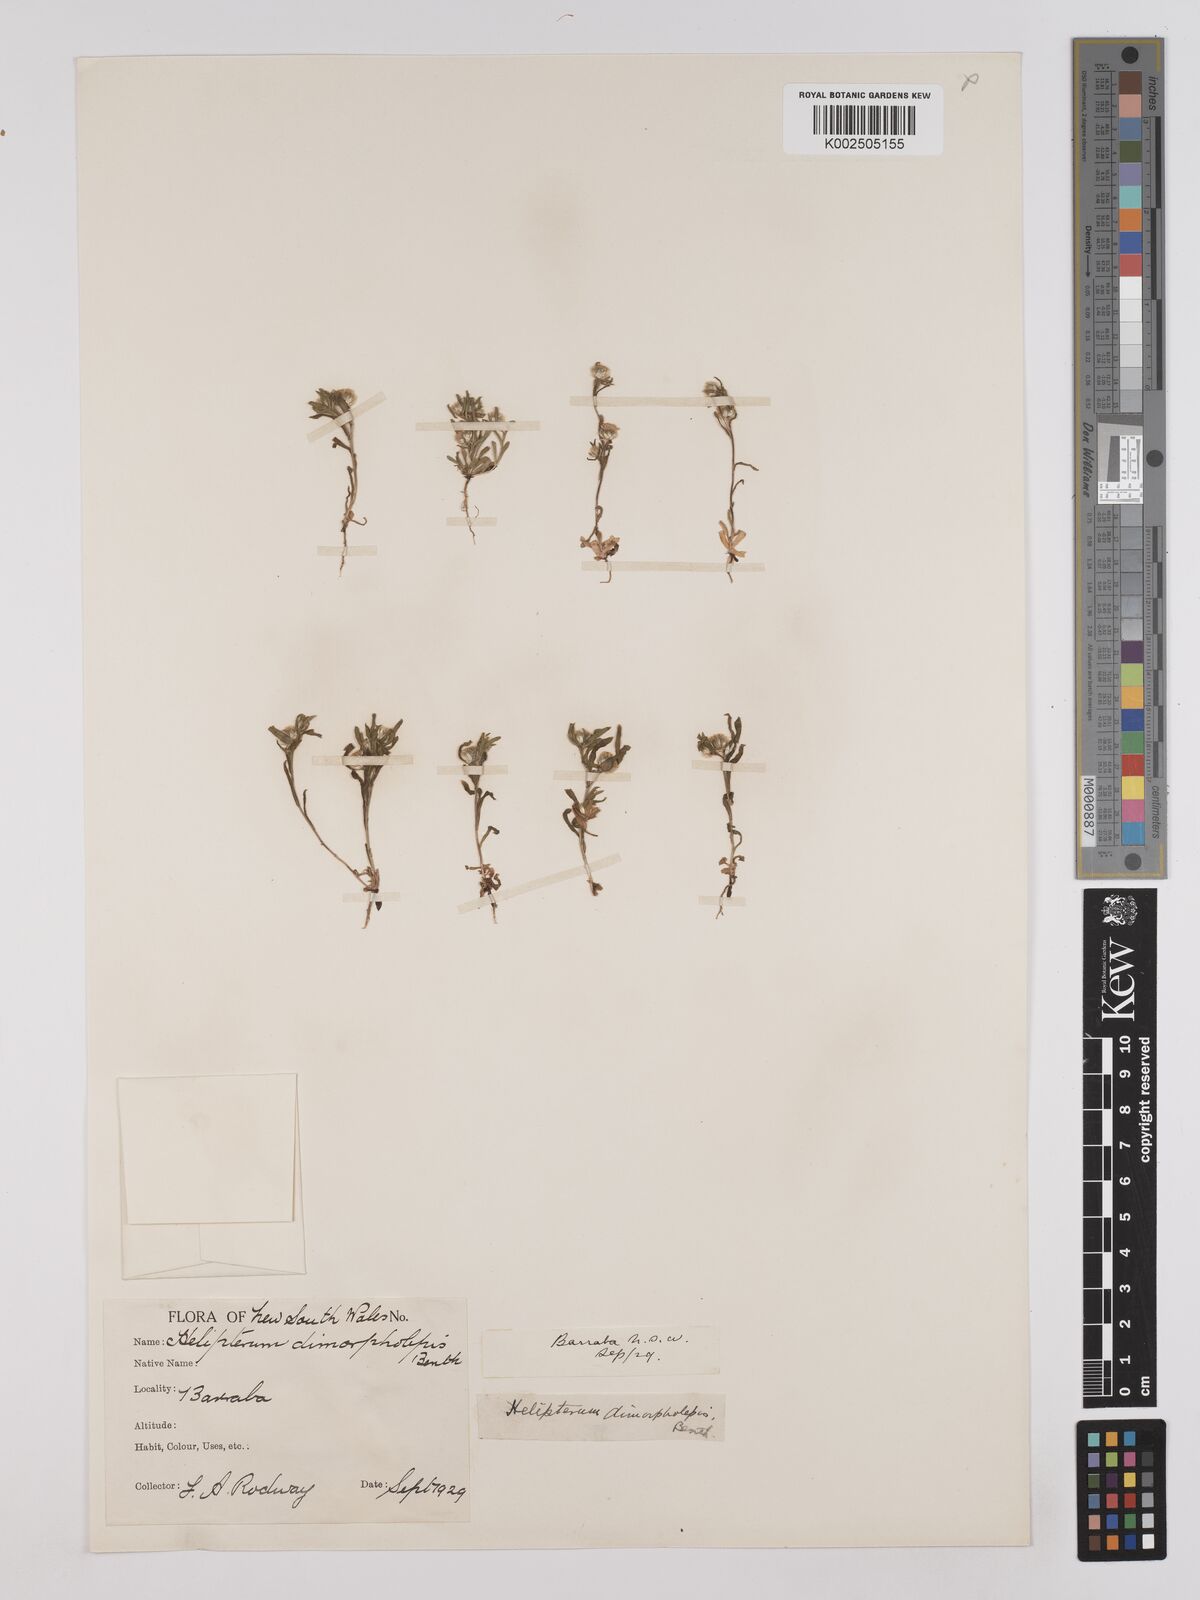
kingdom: Plantae
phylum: Tracheophyta
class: Magnoliopsida
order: Asterales
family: Asteraceae
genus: Triptilodiscus
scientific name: Triptilodiscus pygmaeus
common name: Common sunray
